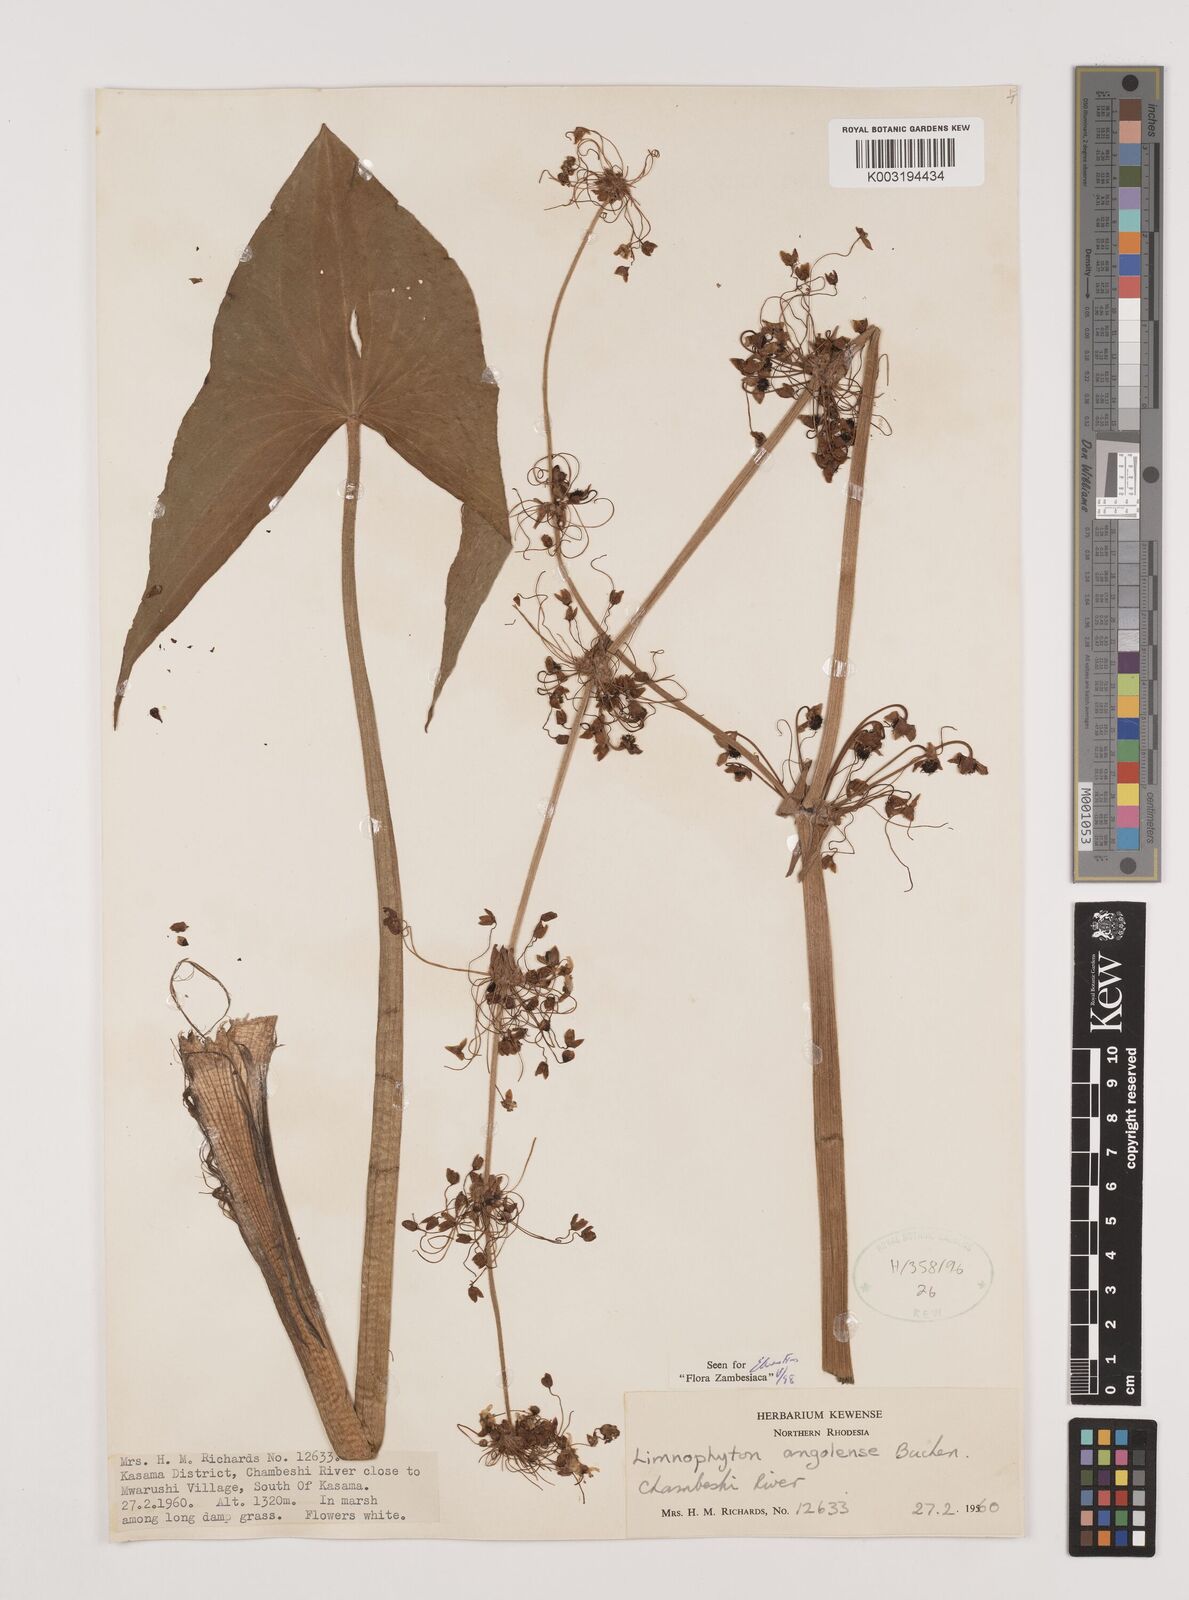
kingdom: Plantae
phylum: Tracheophyta
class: Liliopsida
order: Alismatales
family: Alismataceae
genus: Limnophyton
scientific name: Limnophyton
